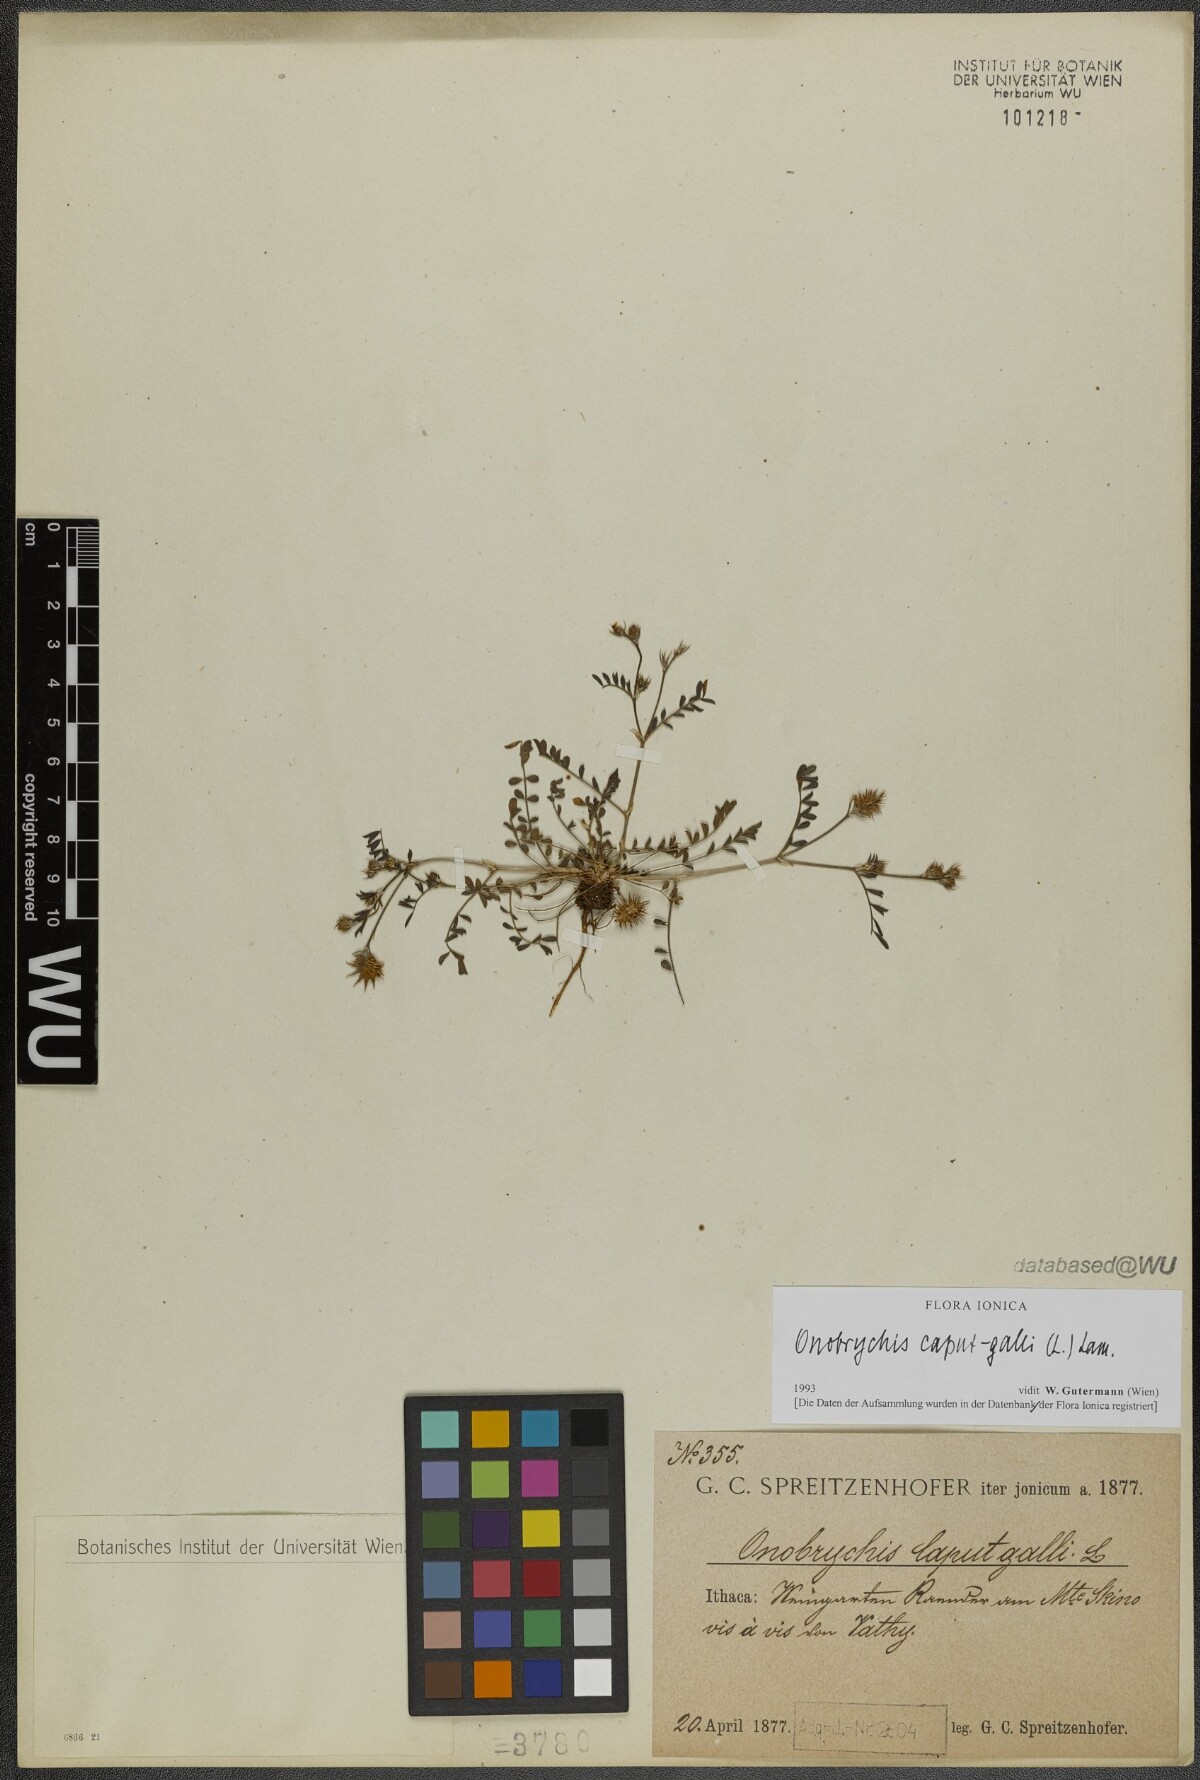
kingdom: Plantae
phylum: Tracheophyta
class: Magnoliopsida
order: Fabales
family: Fabaceae
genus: Onobrychis
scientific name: Onobrychis caput-galli
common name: Cockscomb sainfoin
